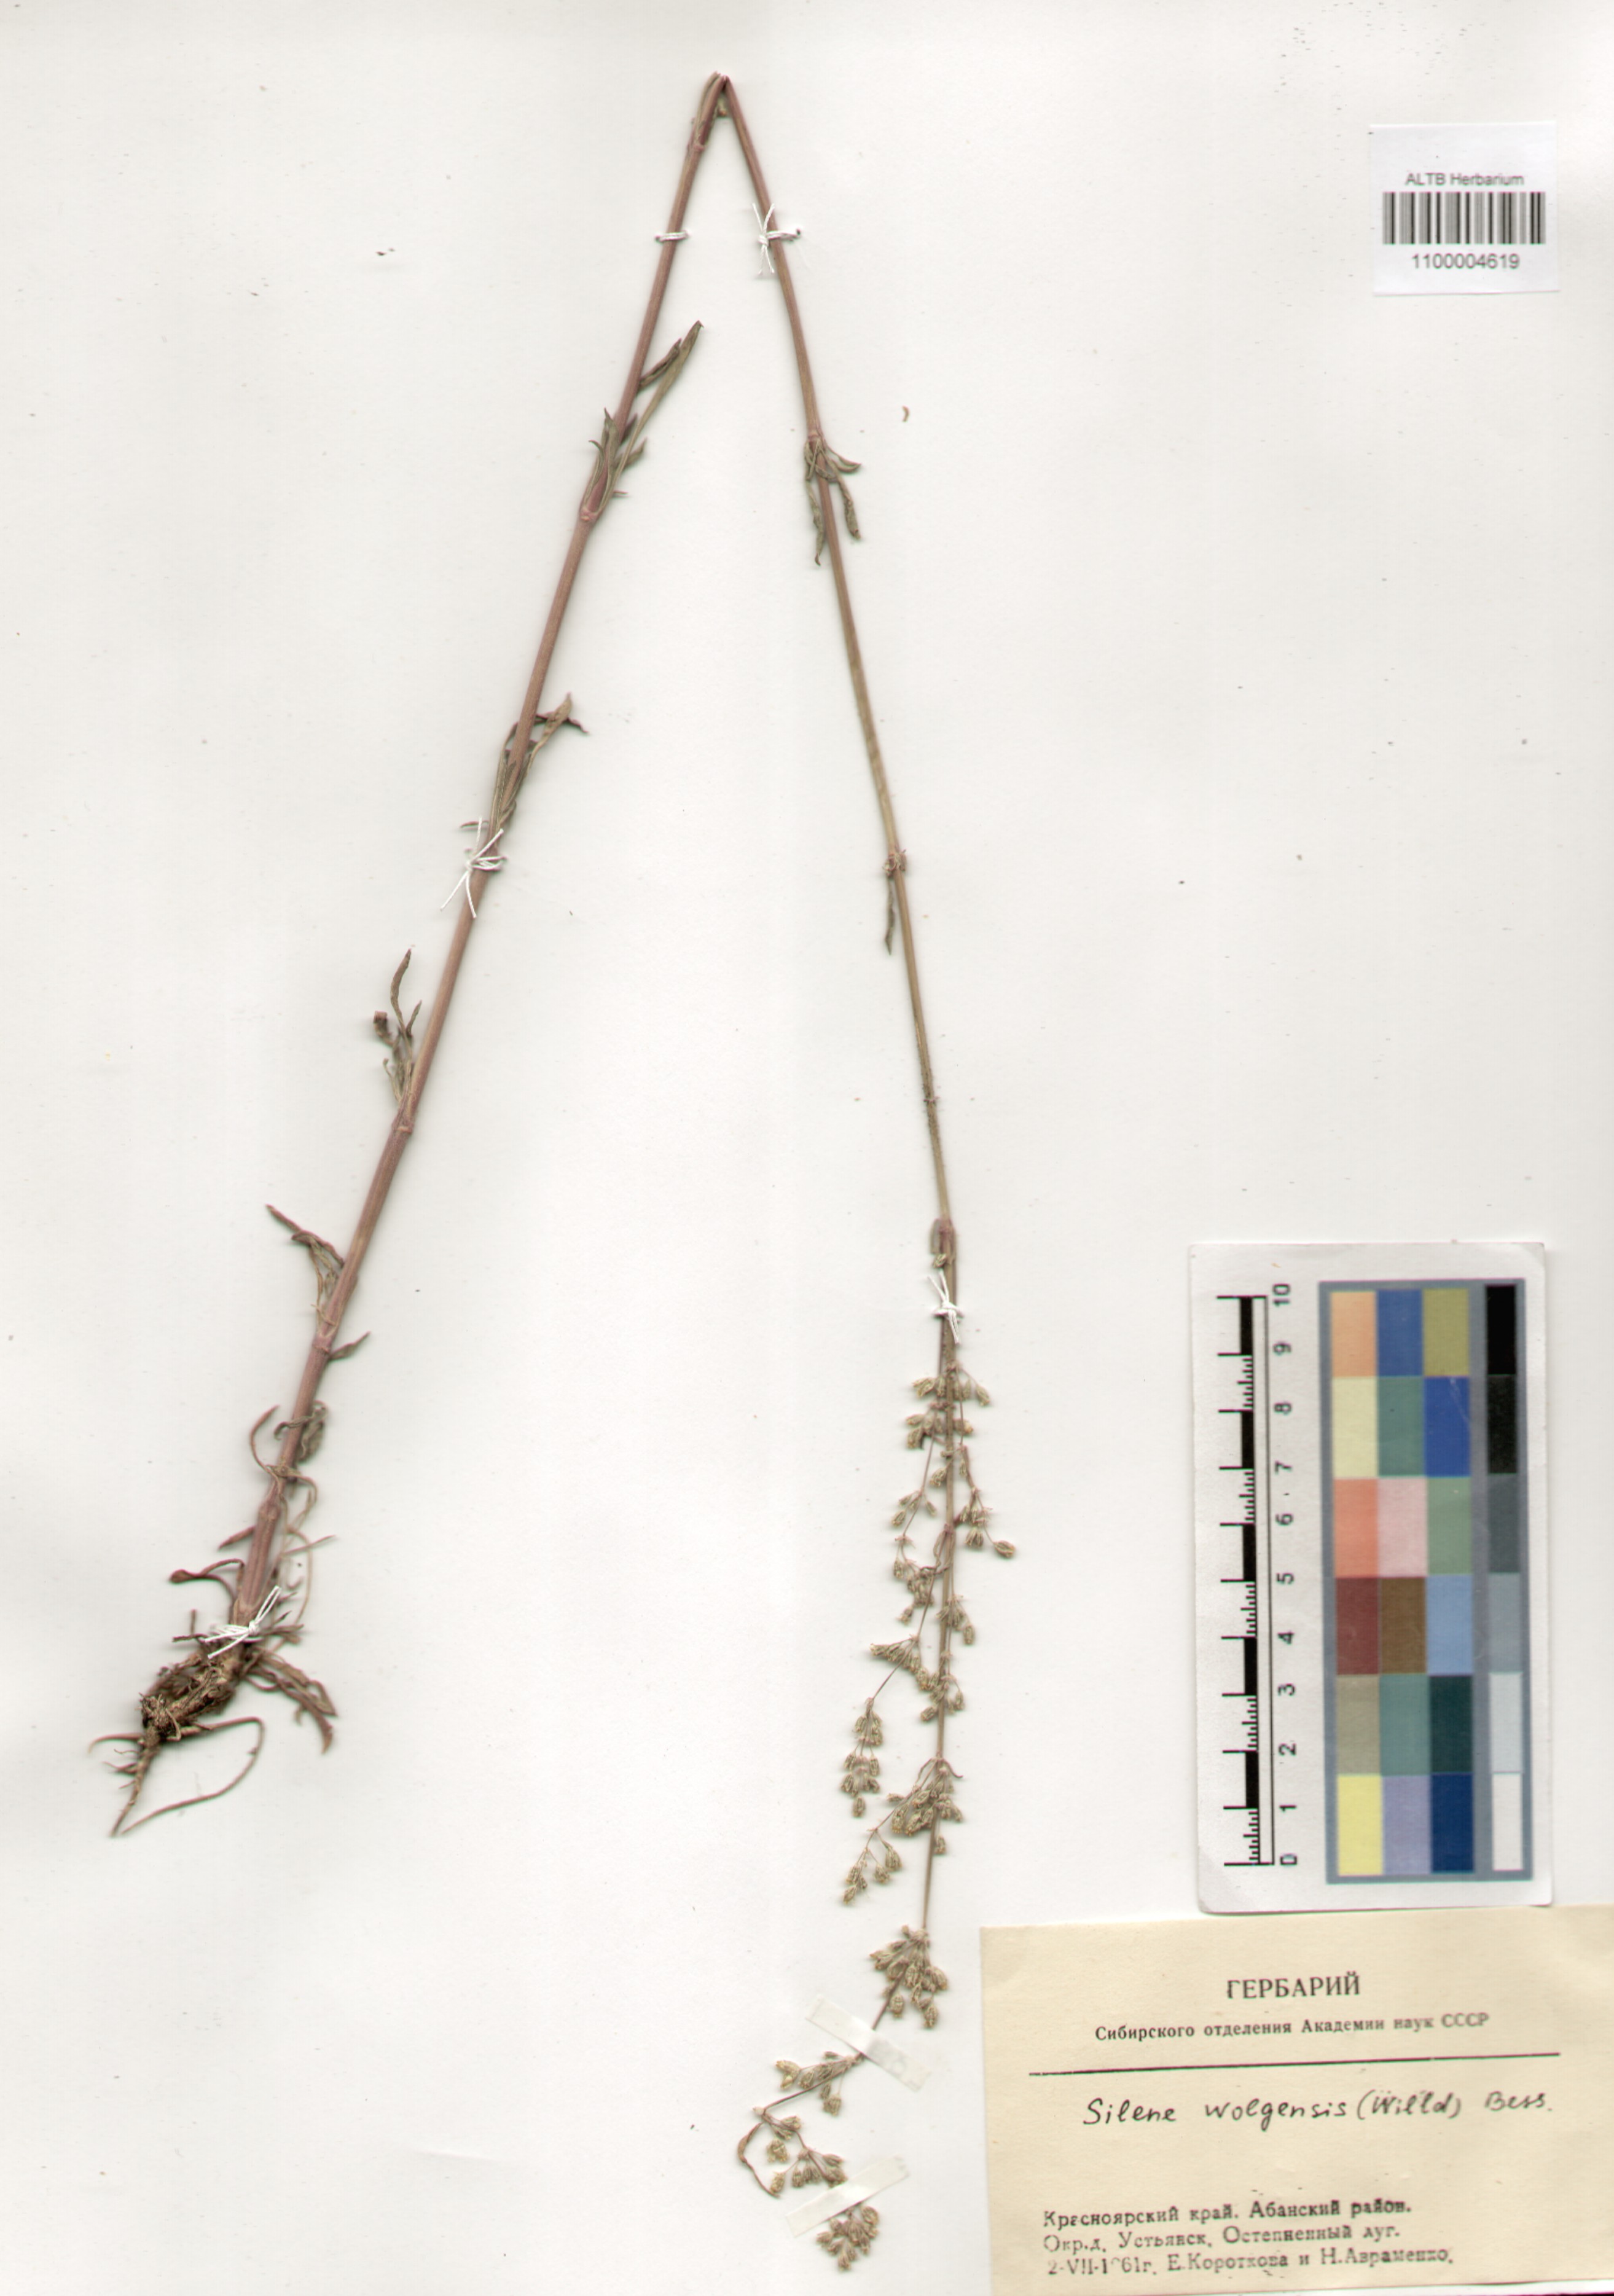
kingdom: Plantae
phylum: Tracheophyta
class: Magnoliopsida
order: Caryophyllales
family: Caryophyllaceae
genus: Silene
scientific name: Silene wolgensis
